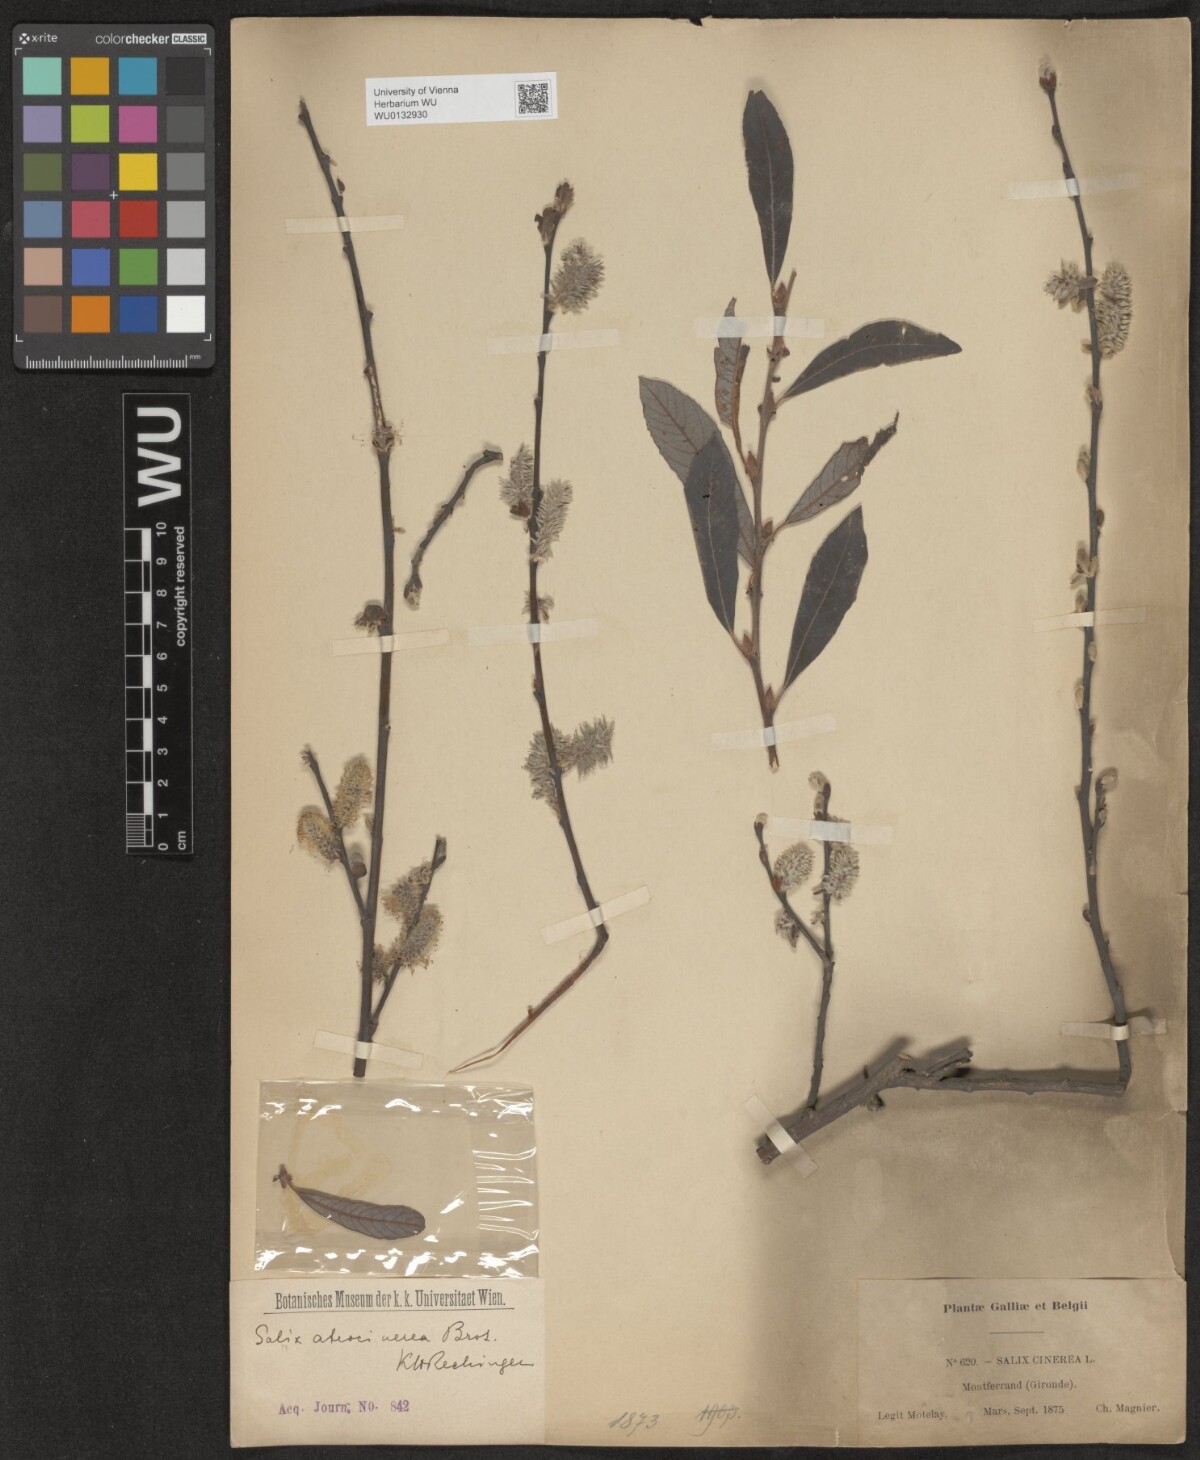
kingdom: Plantae
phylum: Tracheophyta
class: Magnoliopsida
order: Malpighiales
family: Salicaceae
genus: Salix
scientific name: Salix atrocinerea
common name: Rusty willow
